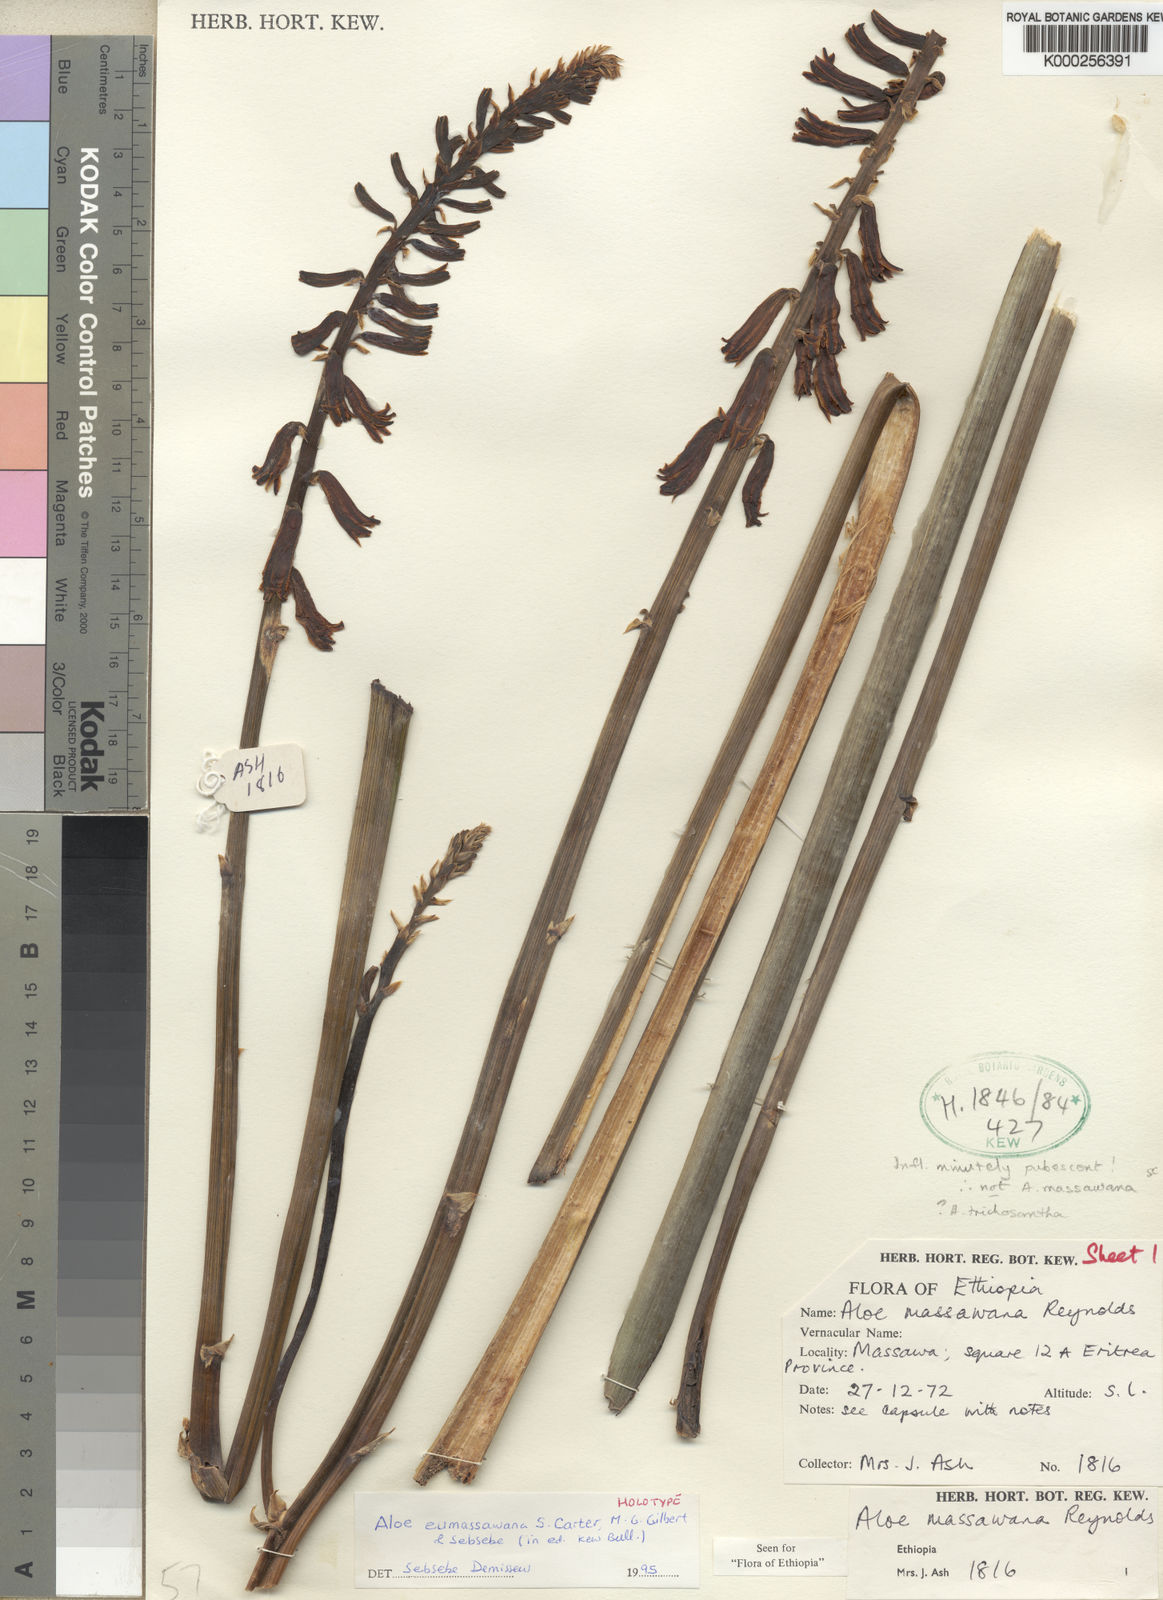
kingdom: Plantae
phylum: Tracheophyta
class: Liliopsida
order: Asparagales
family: Asphodelaceae
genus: Aloe
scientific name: Aloe eumassawana
